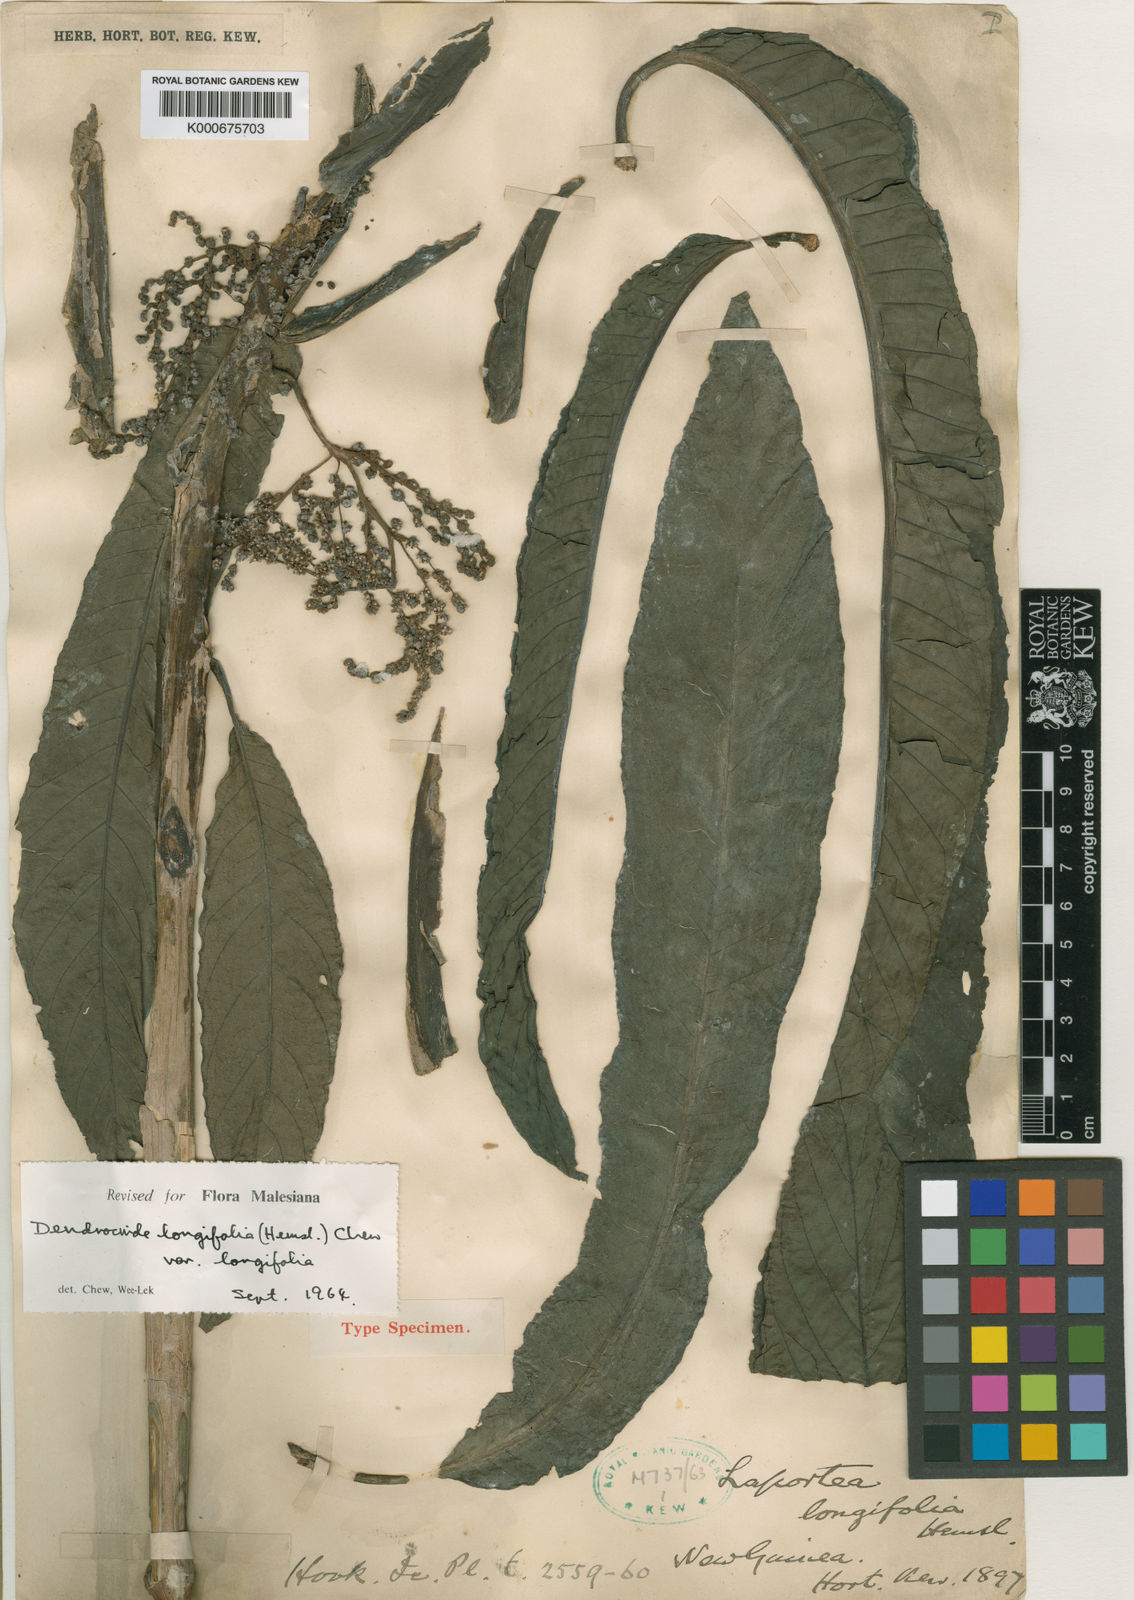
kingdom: Plantae
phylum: Tracheophyta
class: Magnoliopsida
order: Rosales
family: Urticaceae
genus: Dendrocnide
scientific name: Dendrocnide longifolia
